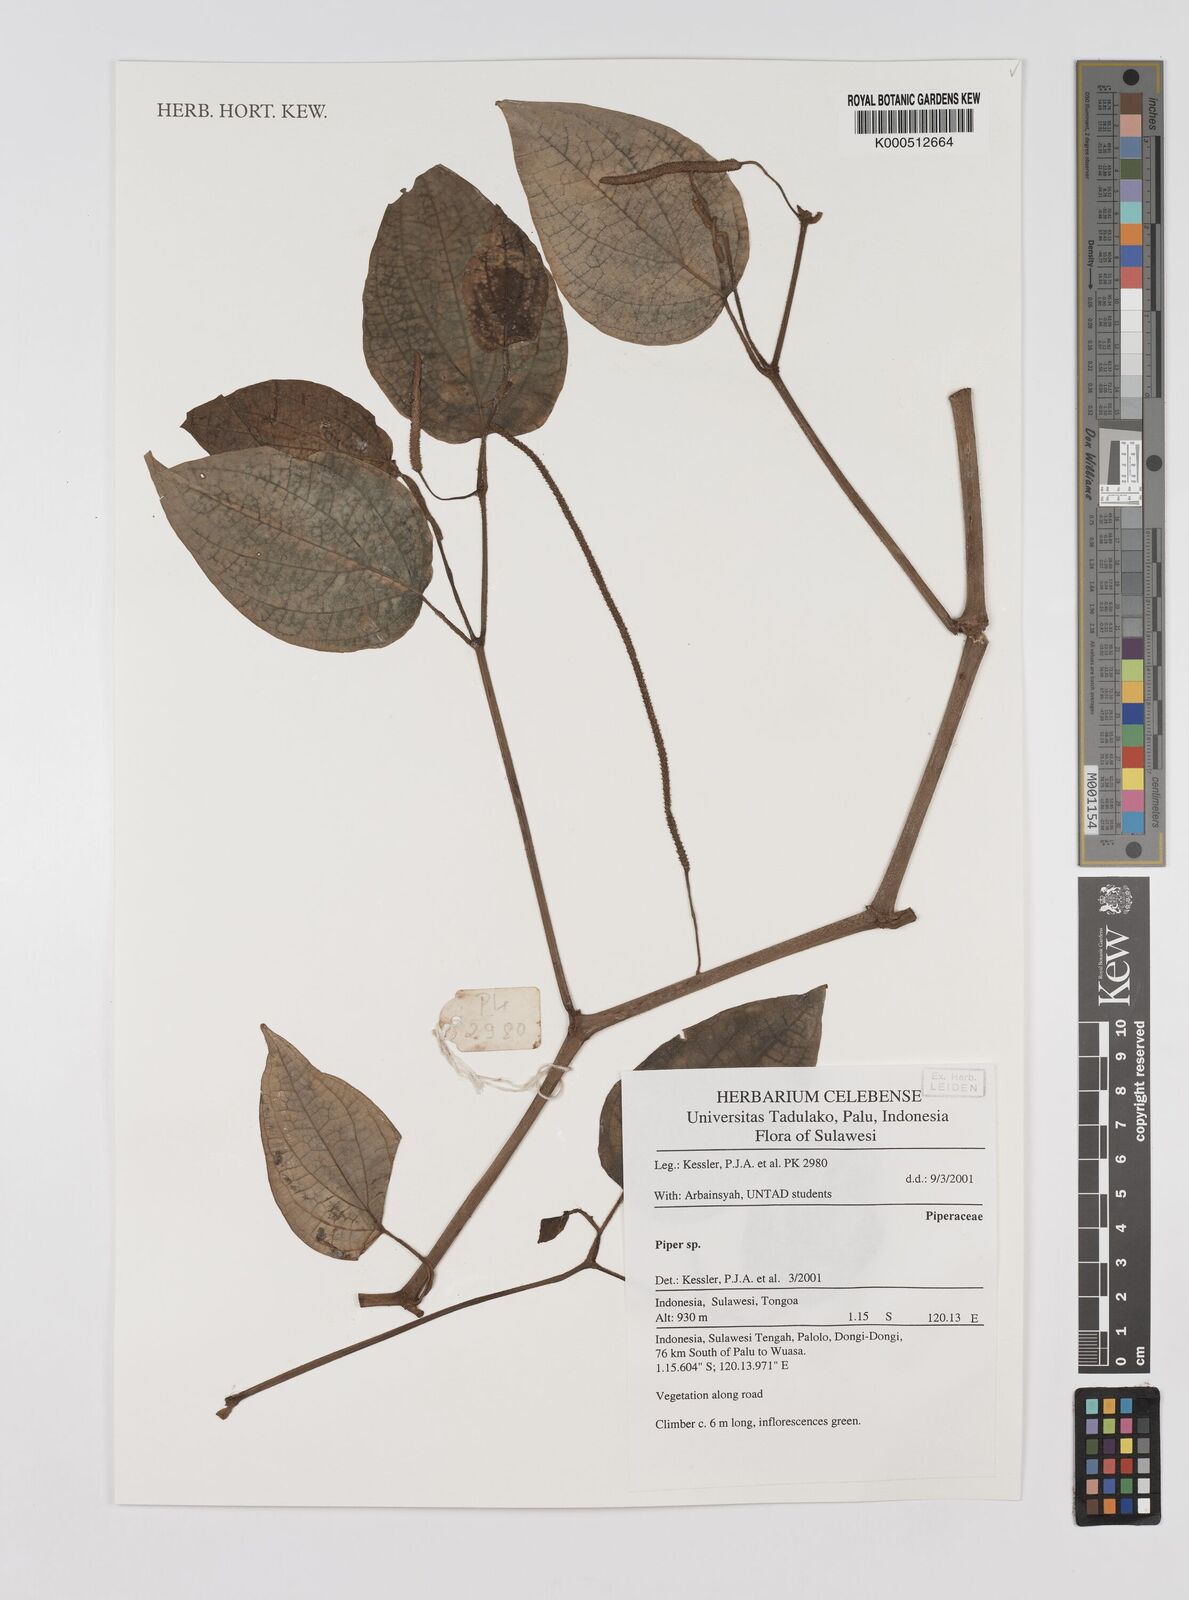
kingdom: Plantae
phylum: Tracheophyta
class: Magnoliopsida
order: Piperales
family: Piperaceae
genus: Piper
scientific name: Piper
